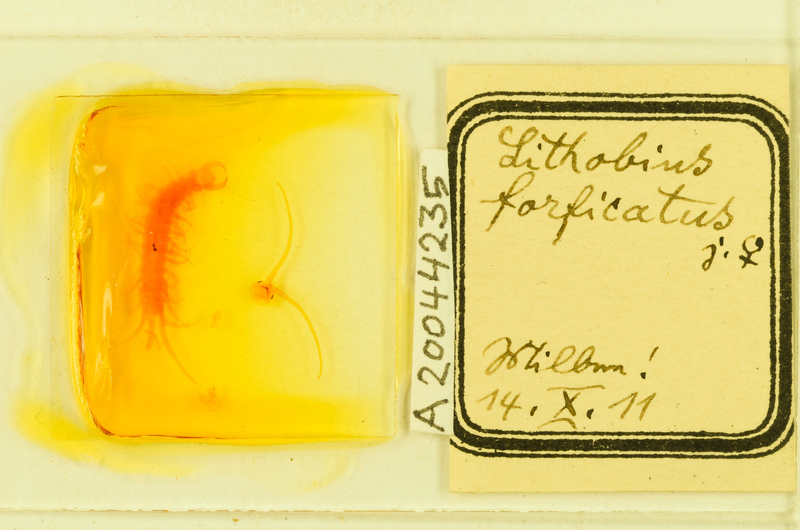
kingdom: Animalia
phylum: Arthropoda
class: Chilopoda
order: Lithobiomorpha
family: Lithobiidae
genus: Lithobius
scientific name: Lithobius forficatus
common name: Centipede
